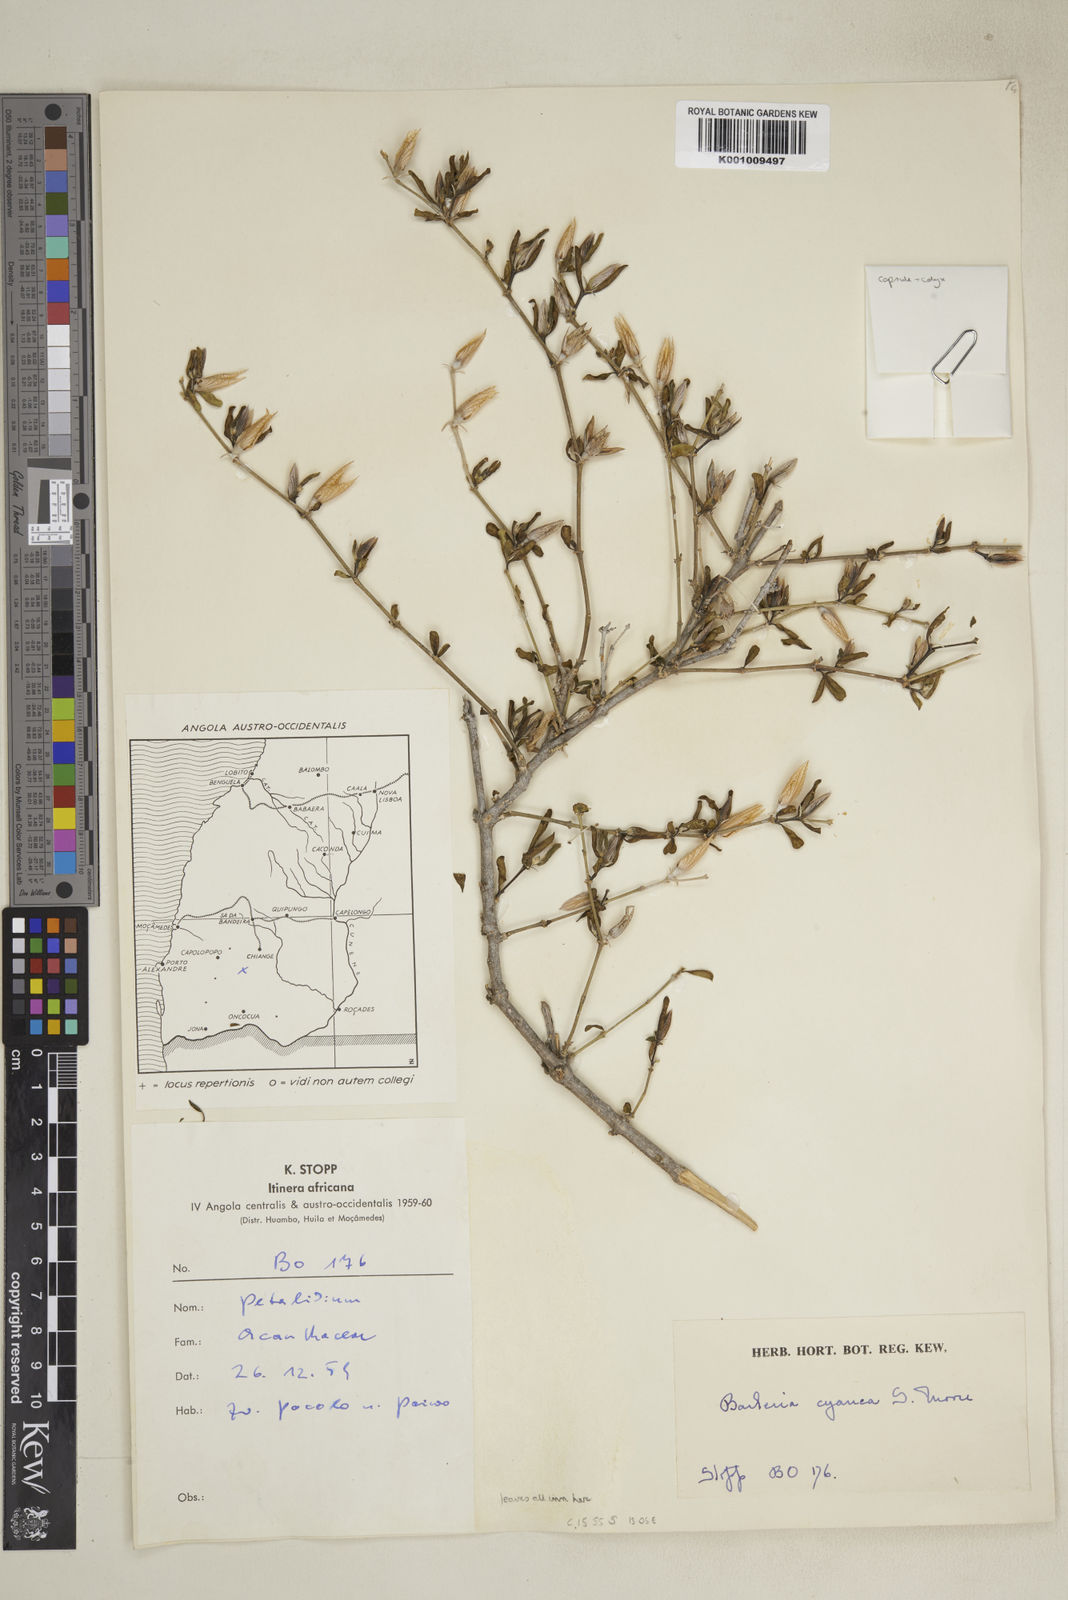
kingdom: Plantae
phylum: Tracheophyta
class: Magnoliopsida
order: Lamiales
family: Acanthaceae
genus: Barleria
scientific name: Barleria cyanea
